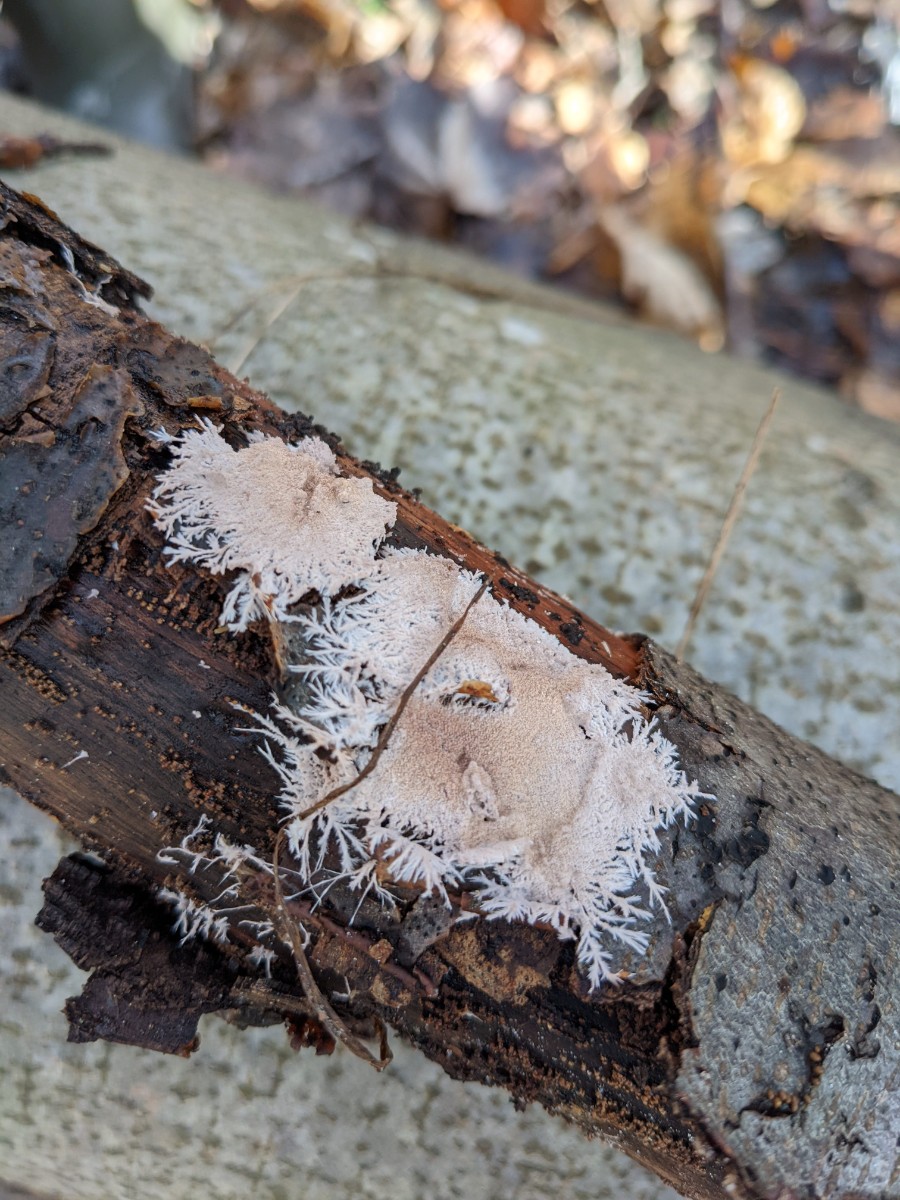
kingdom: Fungi
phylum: Basidiomycota
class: Agaricomycetes
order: Polyporales
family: Steccherinaceae
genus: Steccherinum
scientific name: Steccherinum fimbriatum
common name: trådet skønpig
